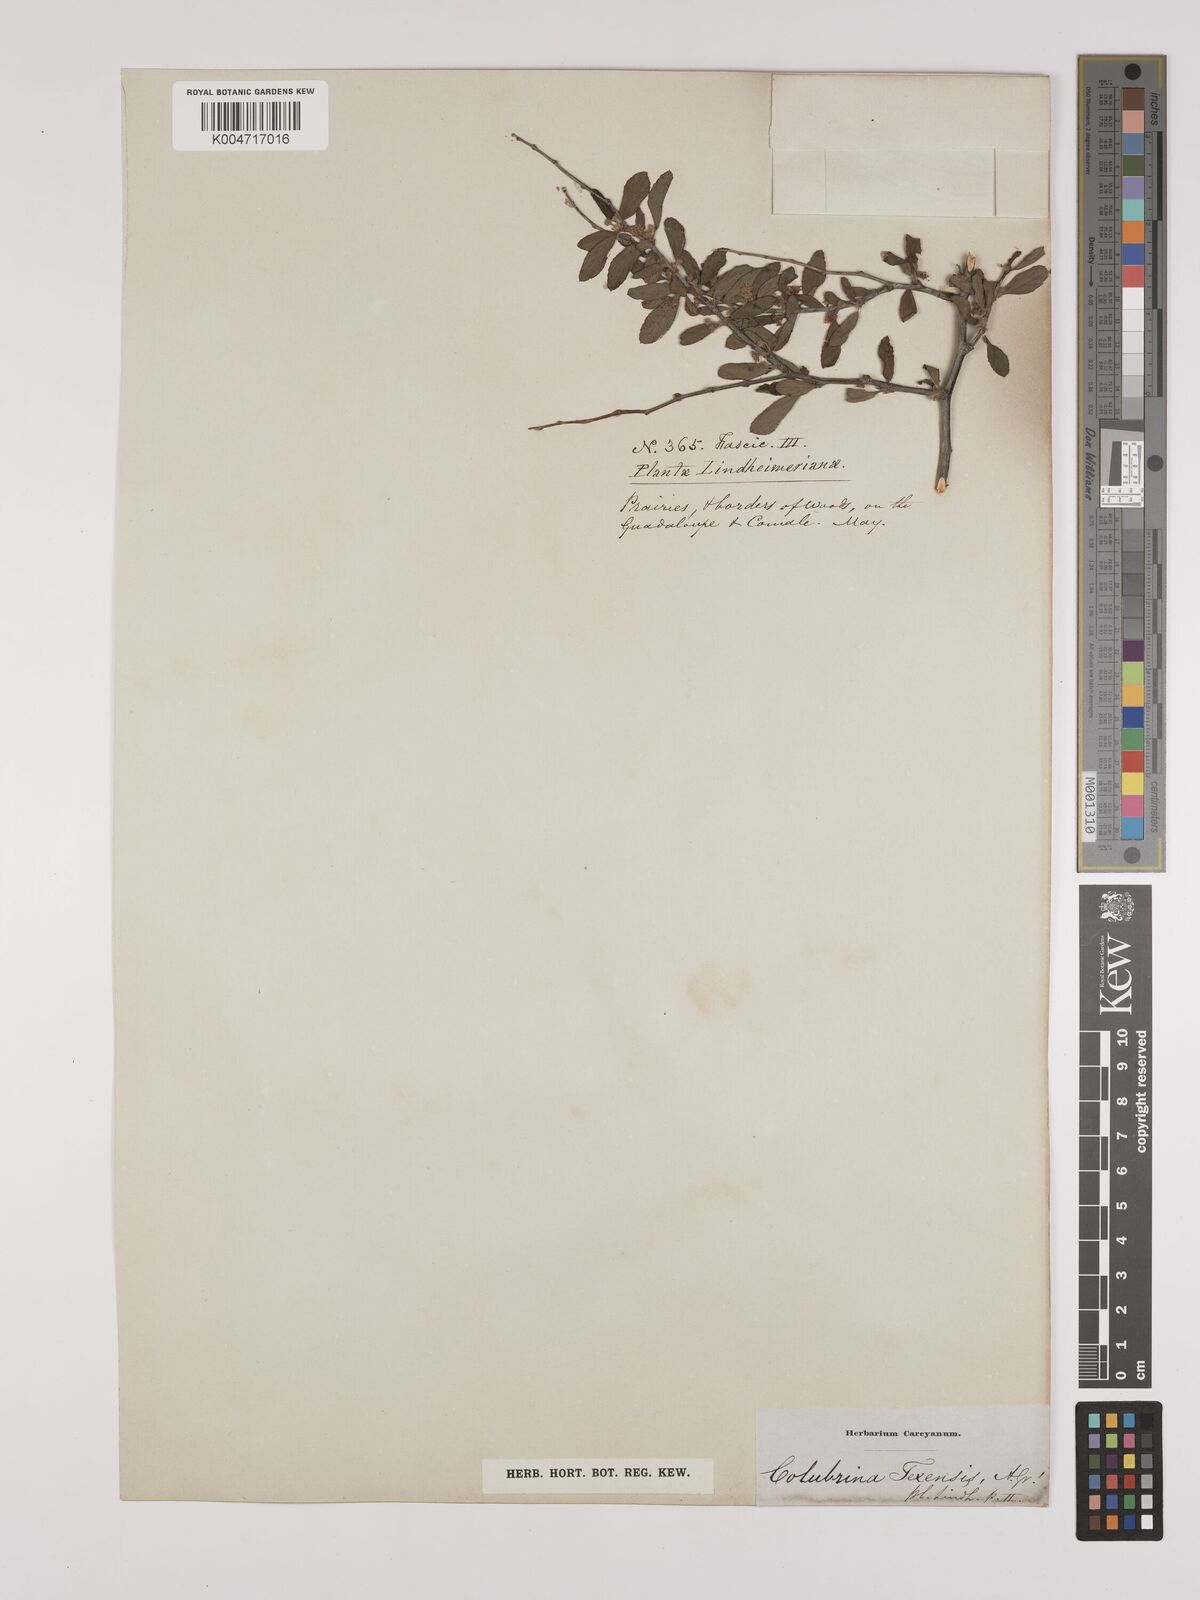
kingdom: Plantae
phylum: Tracheophyta
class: Magnoliopsida
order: Rosales
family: Rhamnaceae
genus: Colubrina
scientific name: Colubrina texensis
